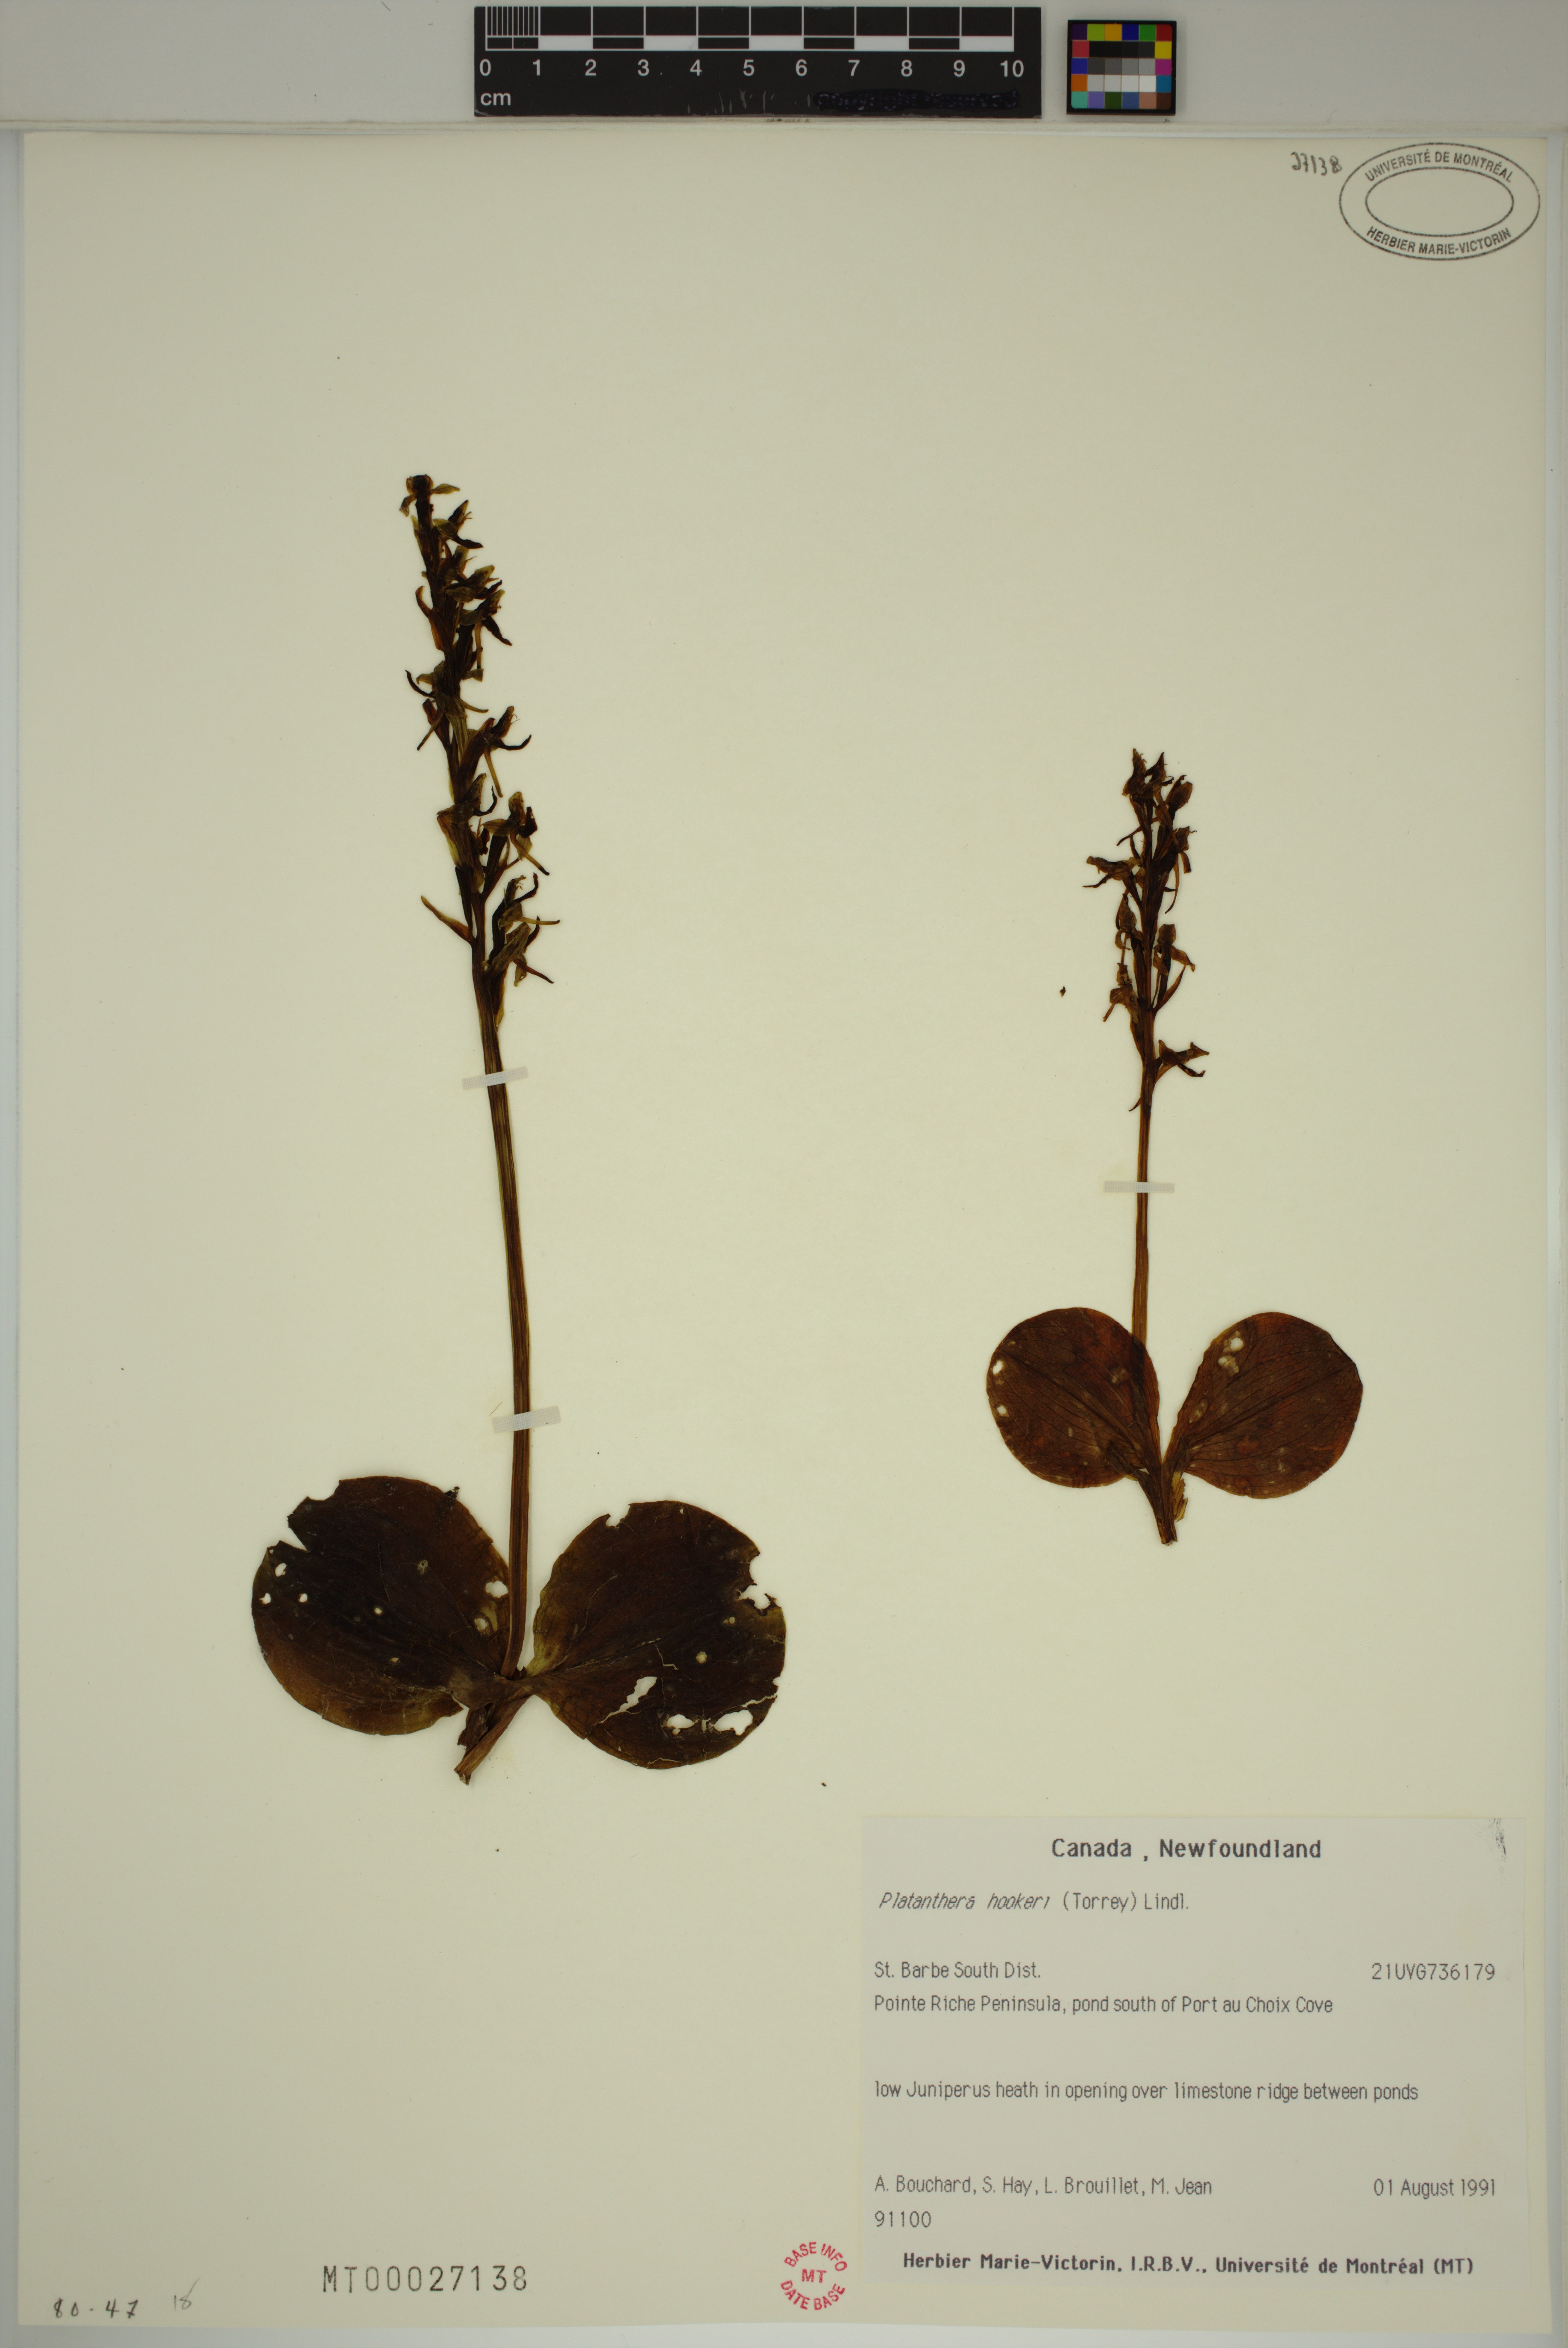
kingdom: Plantae
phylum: Tracheophyta
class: Liliopsida
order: Asparagales
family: Orchidaceae
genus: Platanthera
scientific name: Platanthera hookeri
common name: Hooker's orchid
